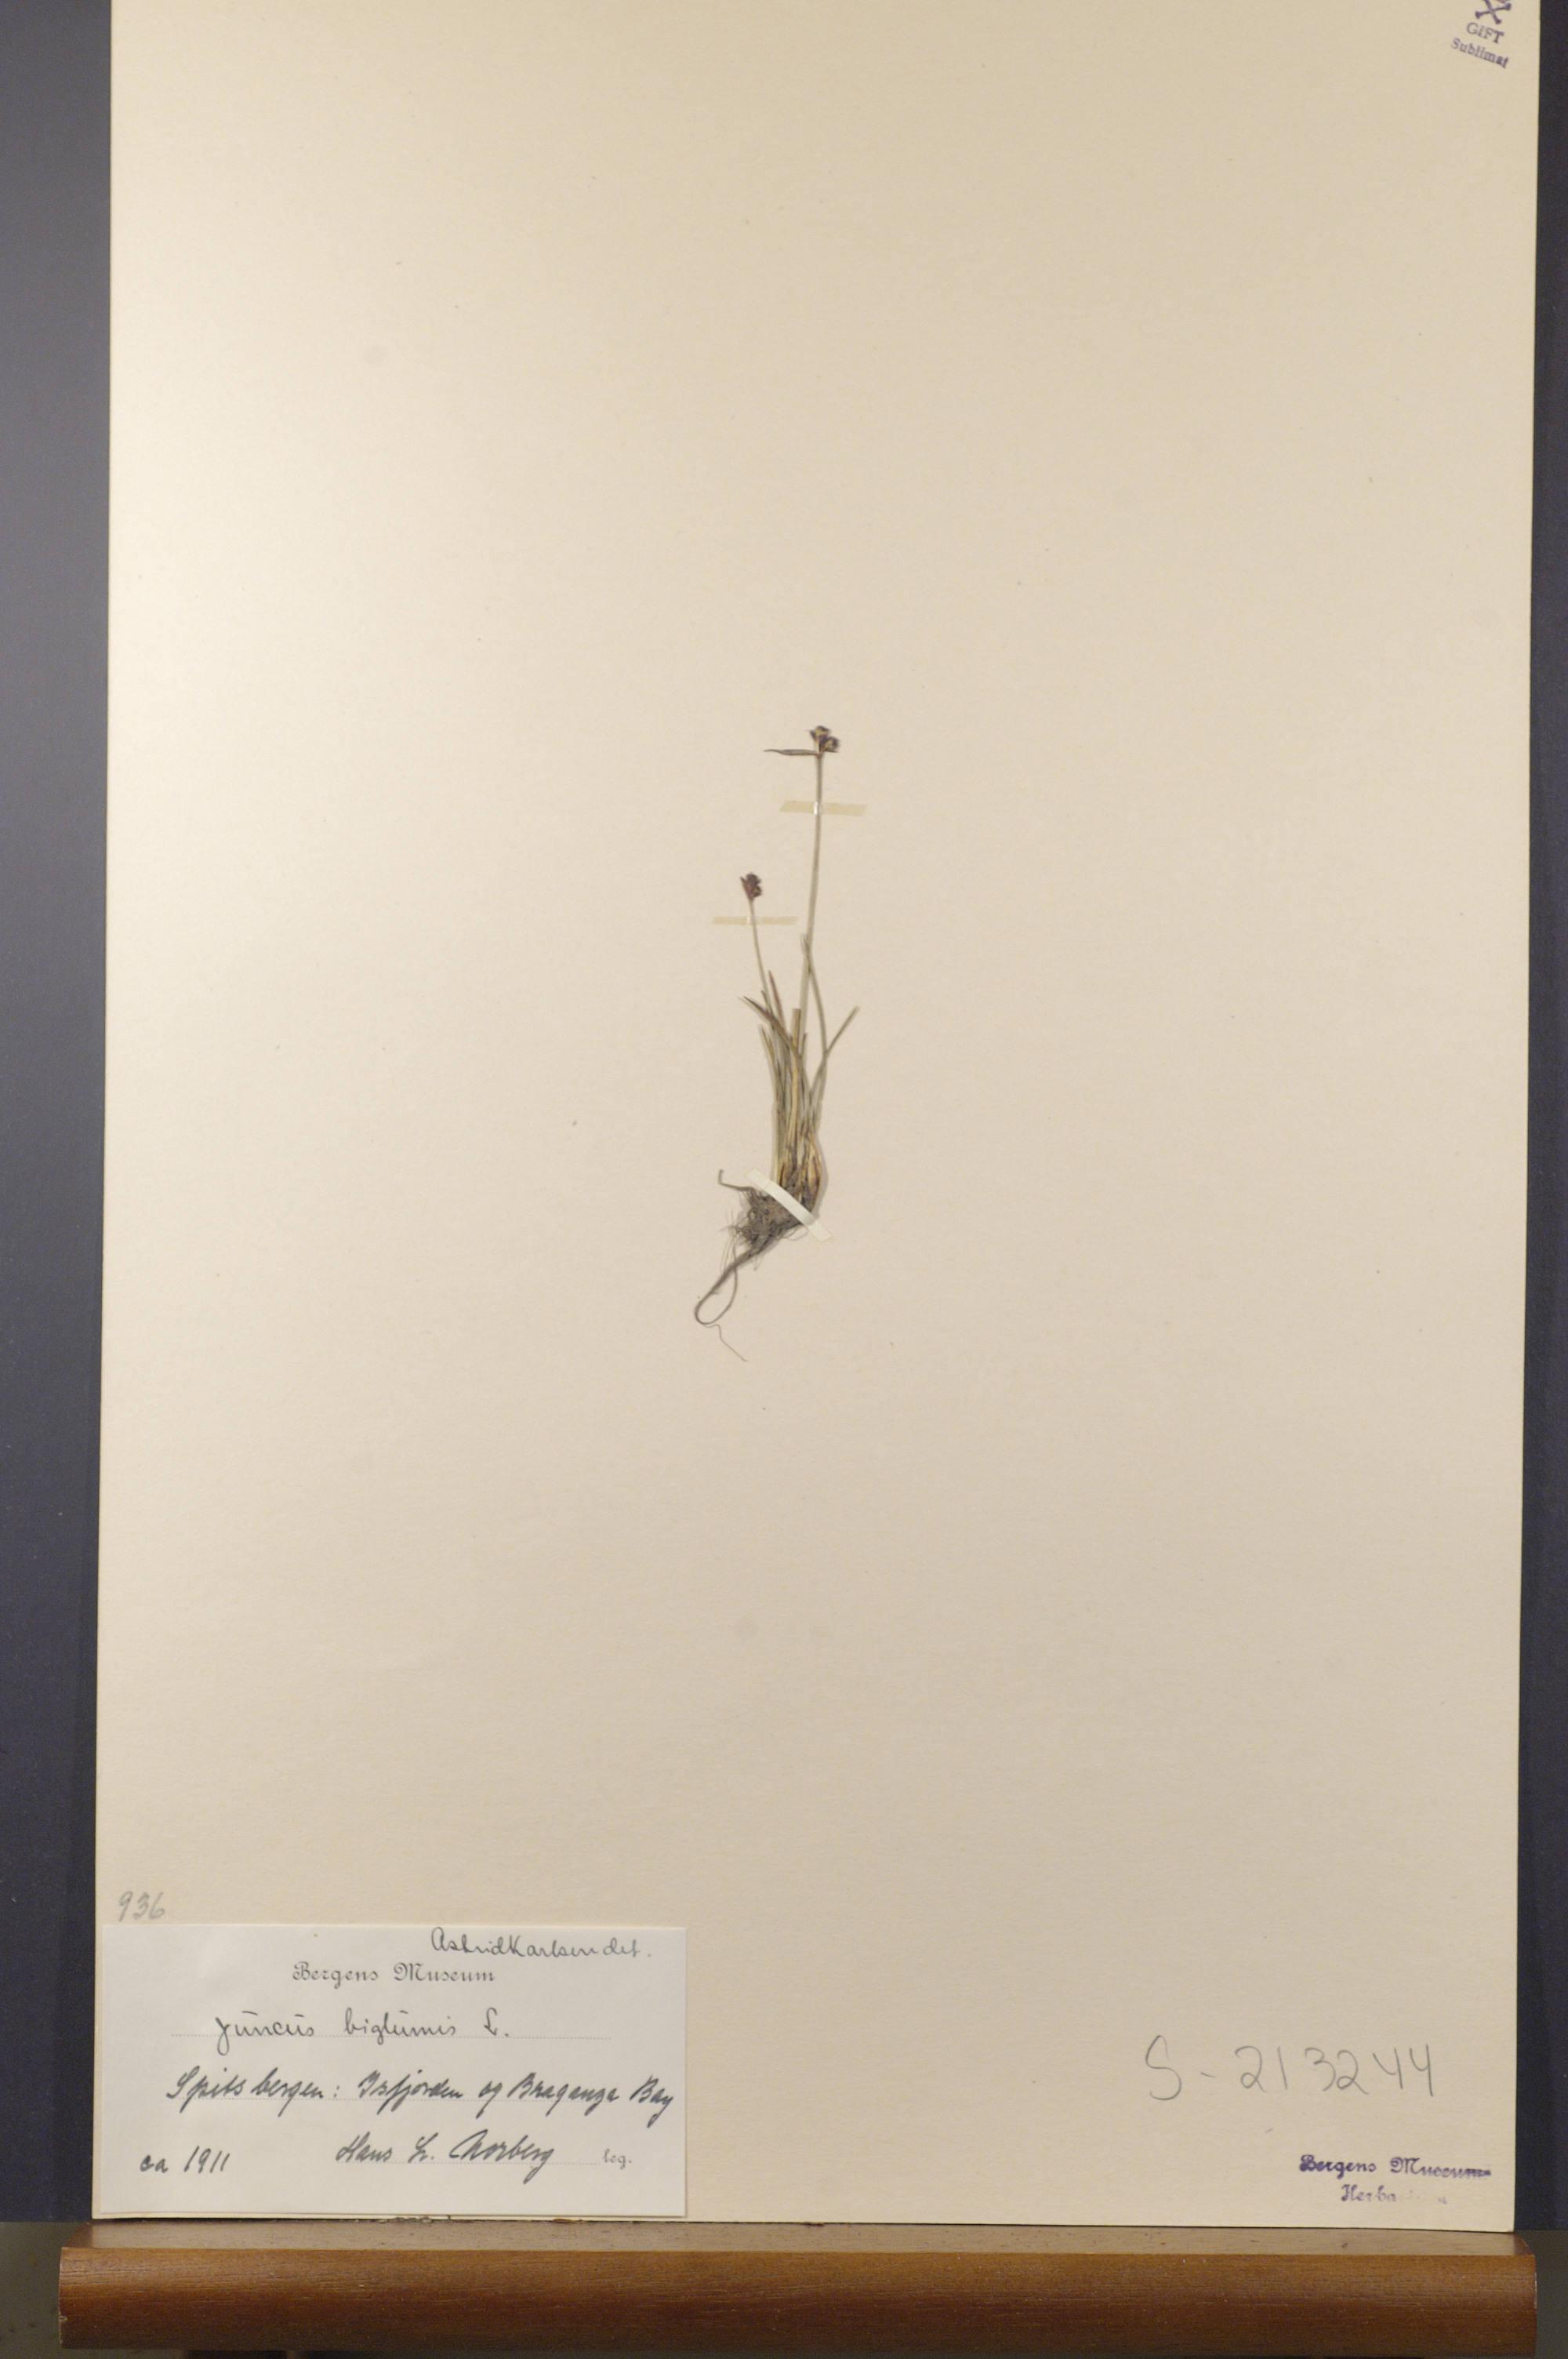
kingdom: Plantae
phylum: Tracheophyta
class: Liliopsida
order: Poales
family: Juncaceae
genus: Juncus
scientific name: Juncus biglumis
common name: Two-flowered rush
